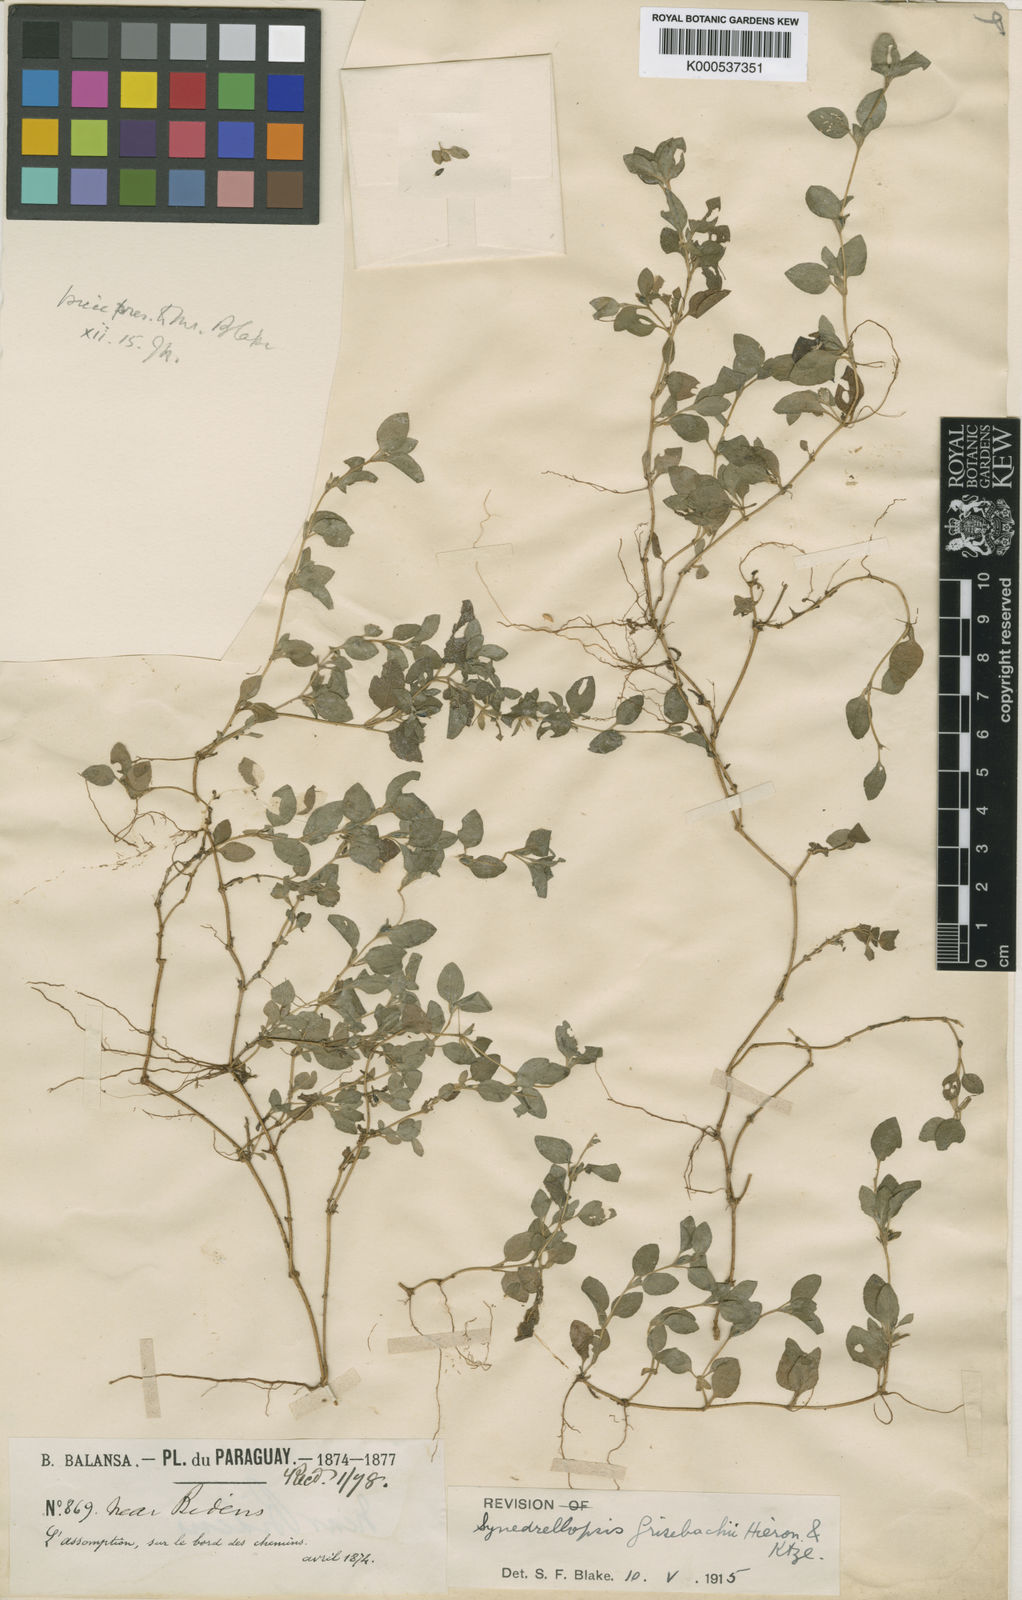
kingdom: Plantae
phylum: Tracheophyta
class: Magnoliopsida
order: Asterales
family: Asteraceae
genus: Synedrellopsis
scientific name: Synedrellopsis grisebachii
